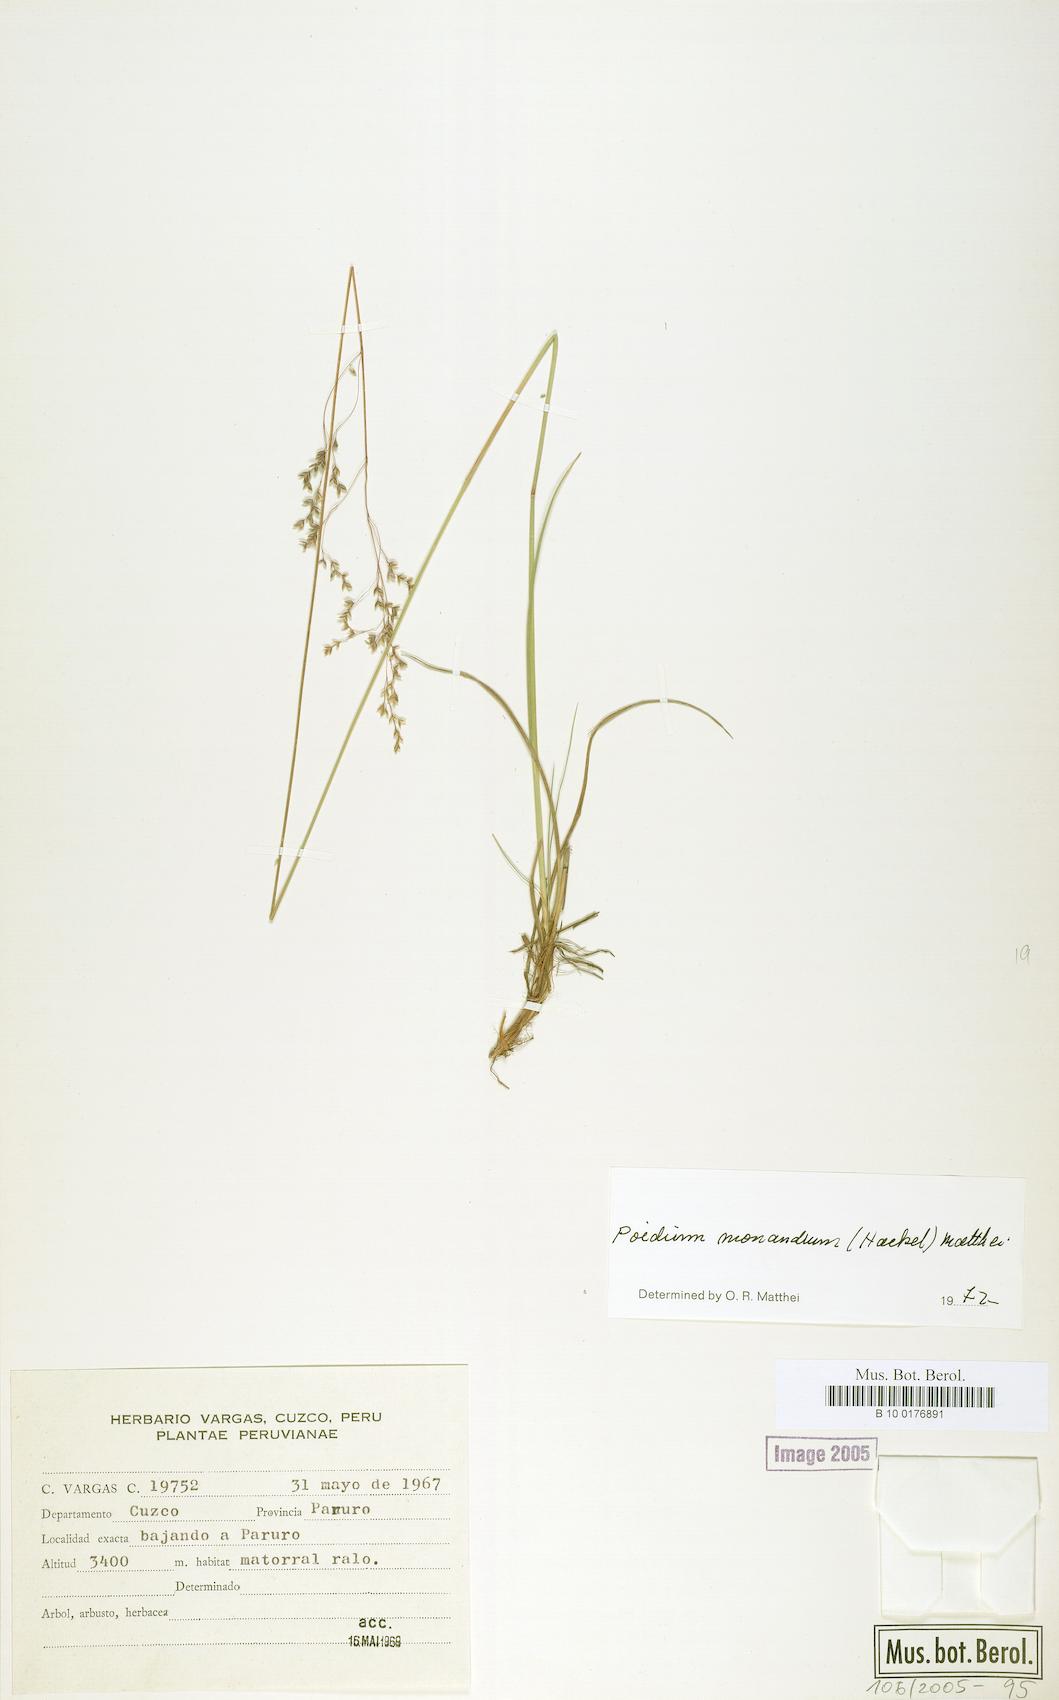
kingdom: Plantae
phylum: Tracheophyta
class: Liliopsida
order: Poales
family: Poaceae
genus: Poidium
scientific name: Poidium monandrum
